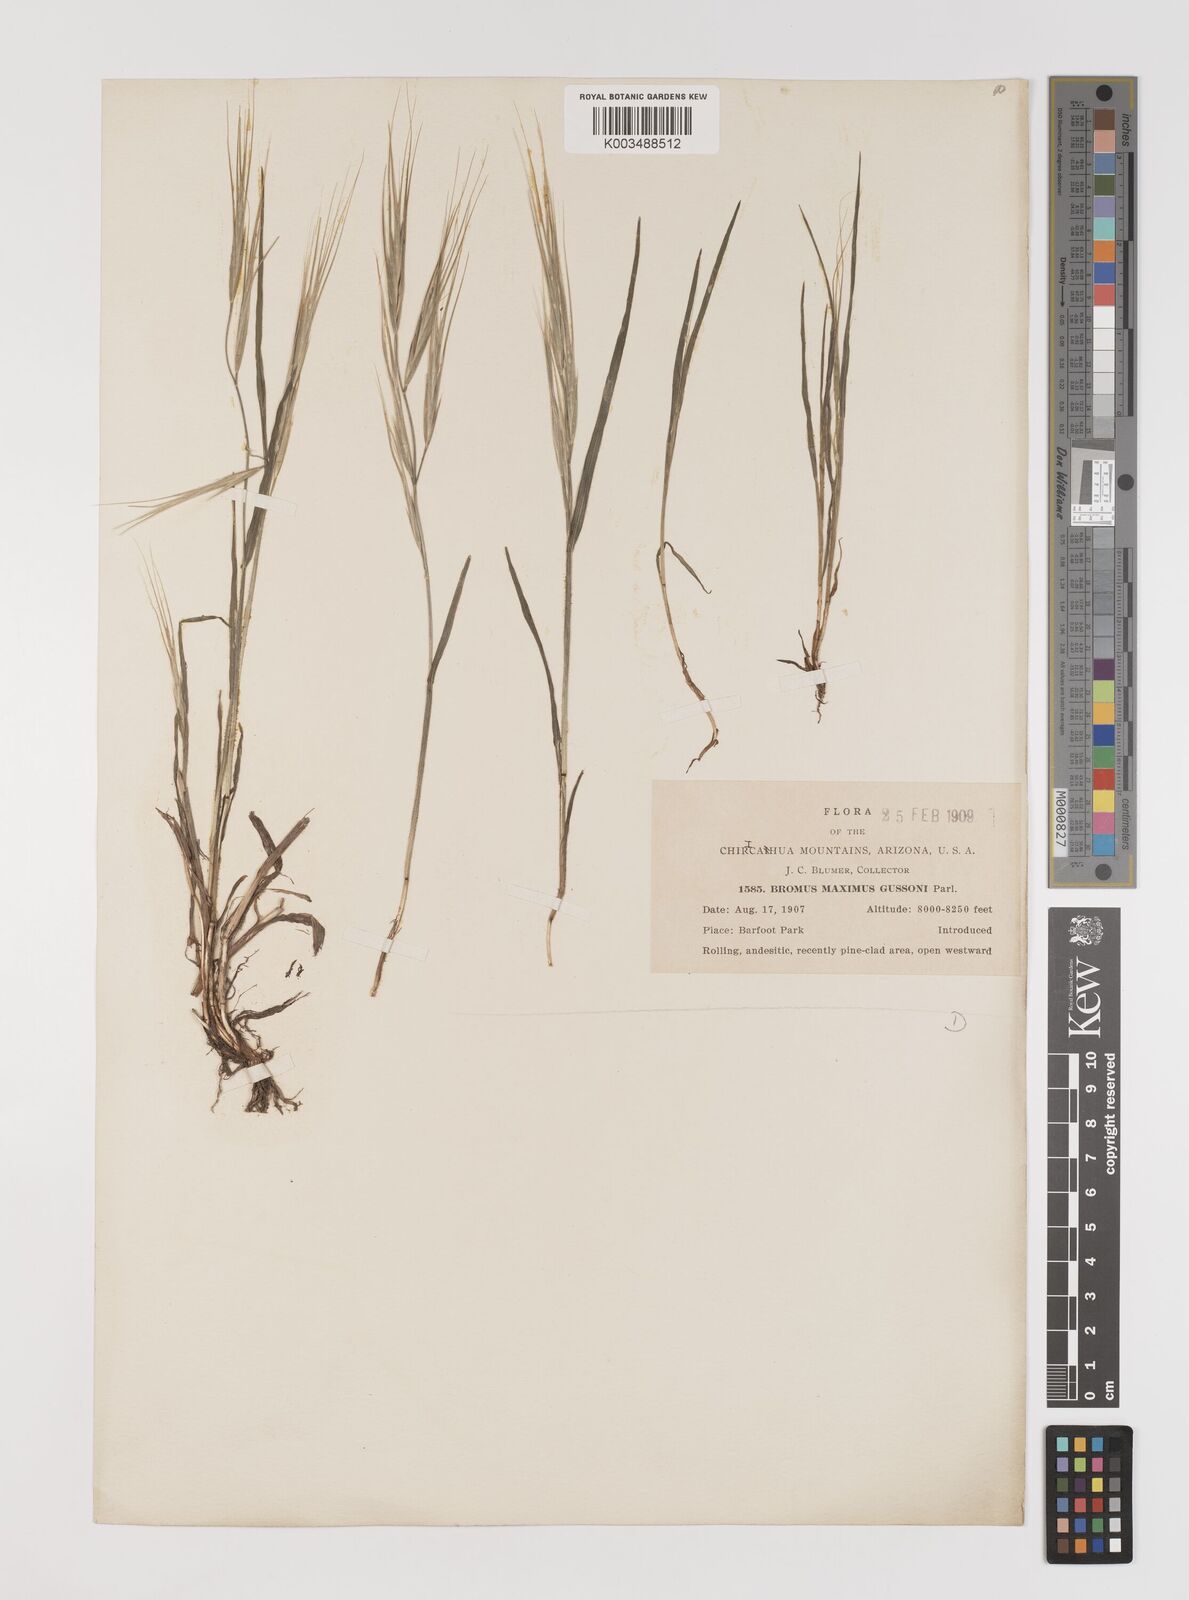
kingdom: Plantae
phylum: Tracheophyta
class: Liliopsida
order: Poales
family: Poaceae
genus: Bromus
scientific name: Bromus diandrus
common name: Ripgut brome
